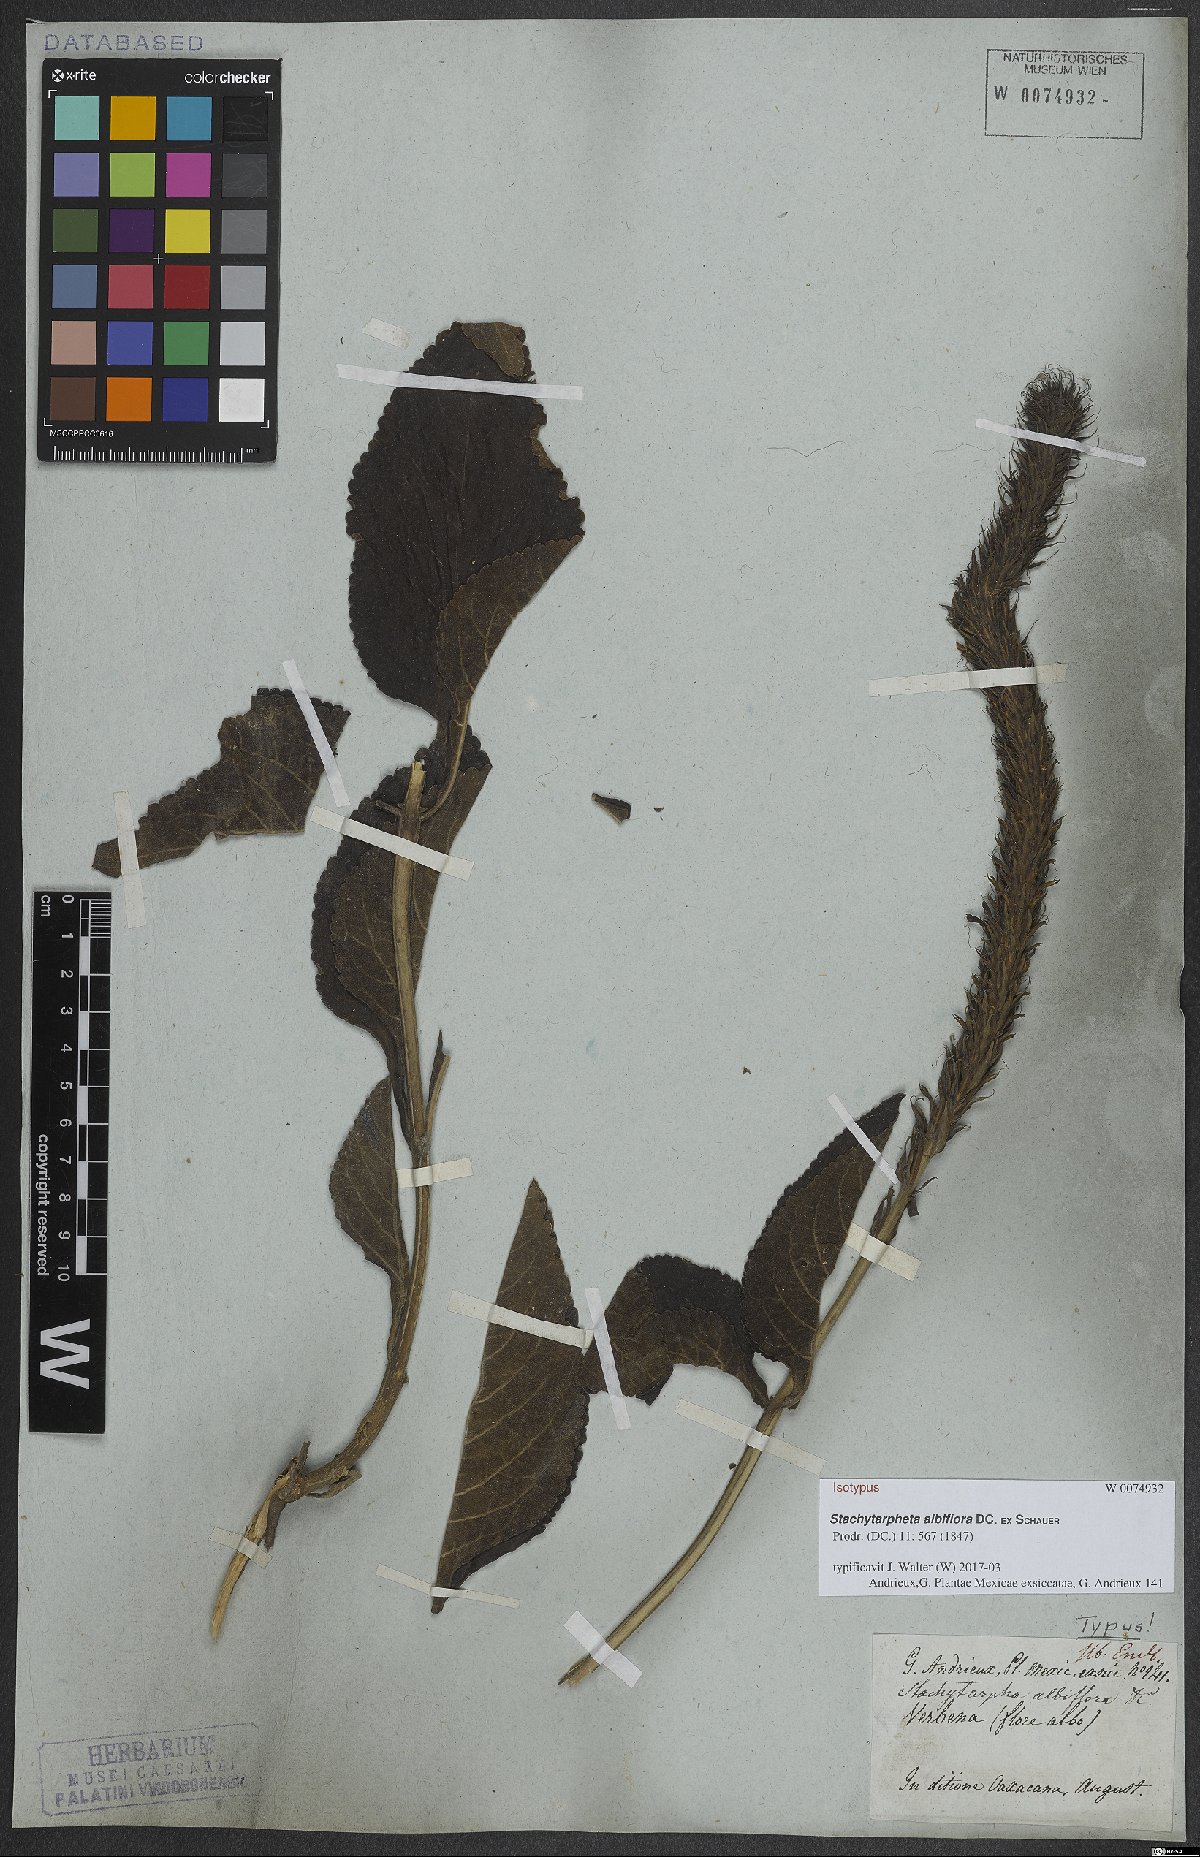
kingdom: Plantae
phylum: Tracheophyta
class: Magnoliopsida
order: Lamiales
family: Verbenaceae
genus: Stachytarpheta
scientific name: Stachytarpheta albiflora
